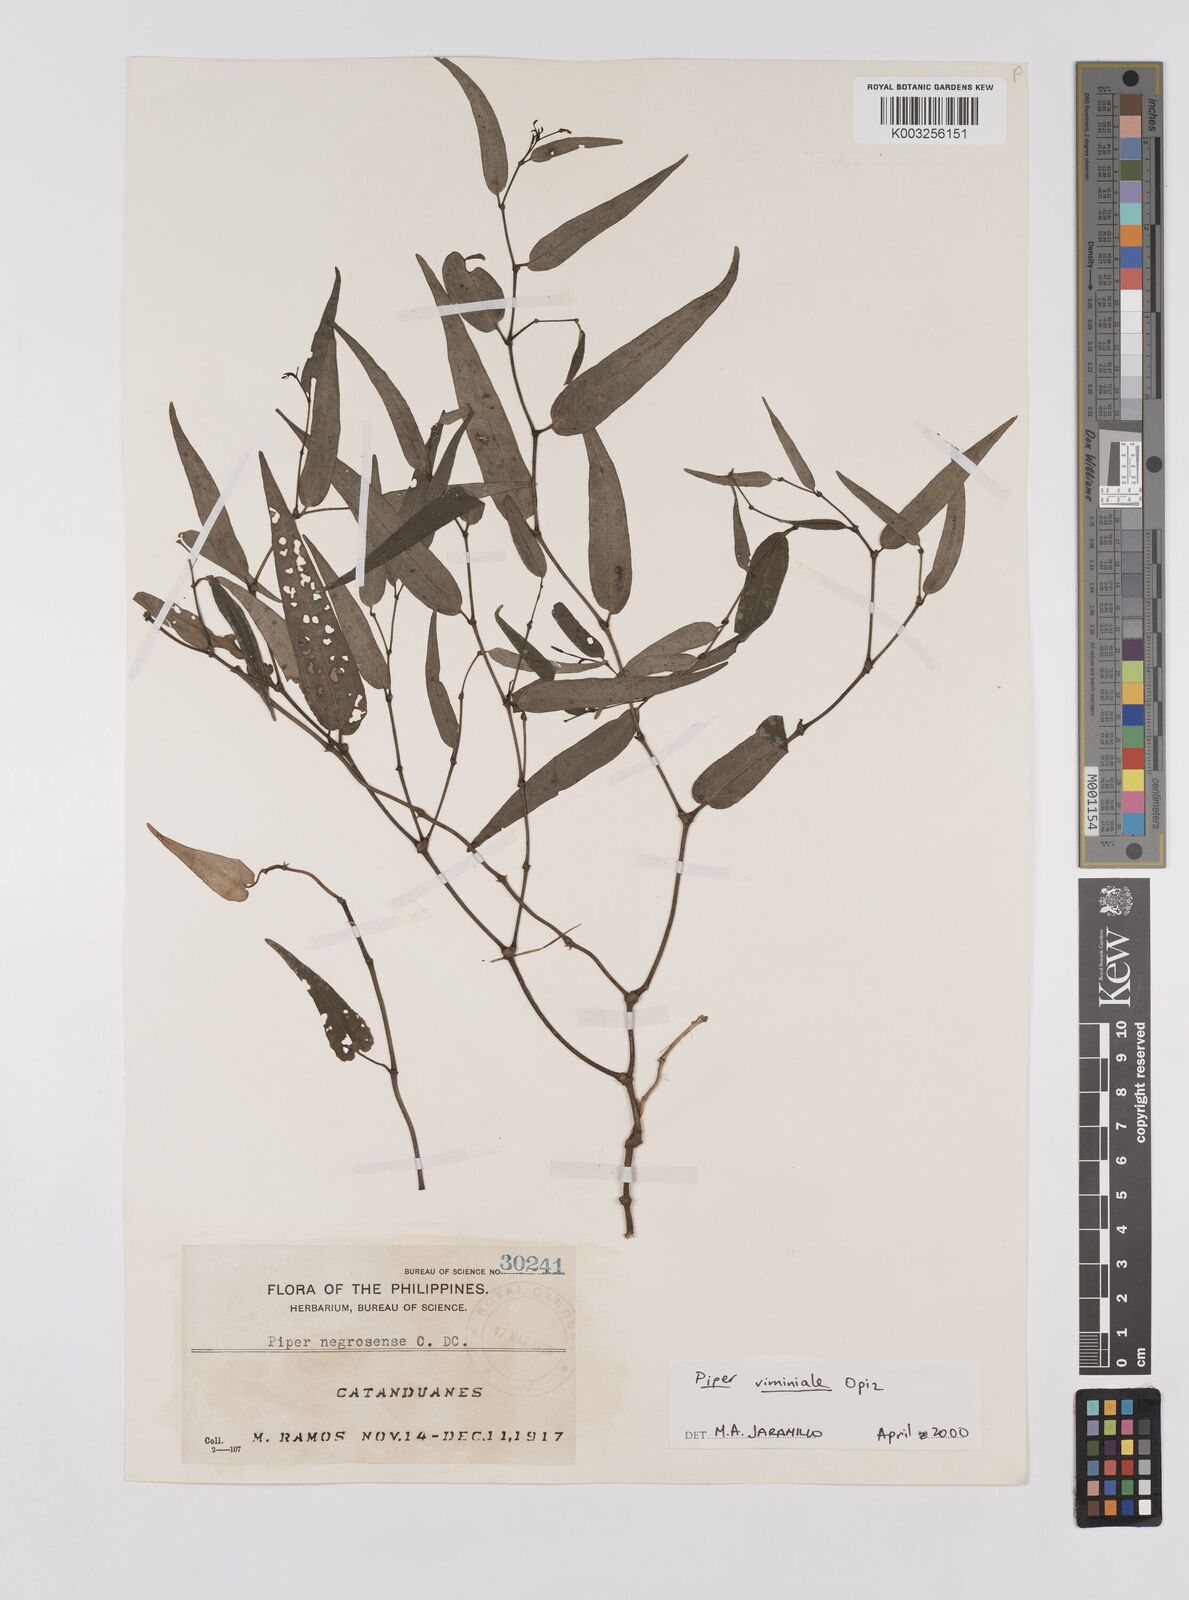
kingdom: Plantae
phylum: Tracheophyta
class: Magnoliopsida
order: Piperales
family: Piperaceae
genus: Piper
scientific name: Piper lanatum
